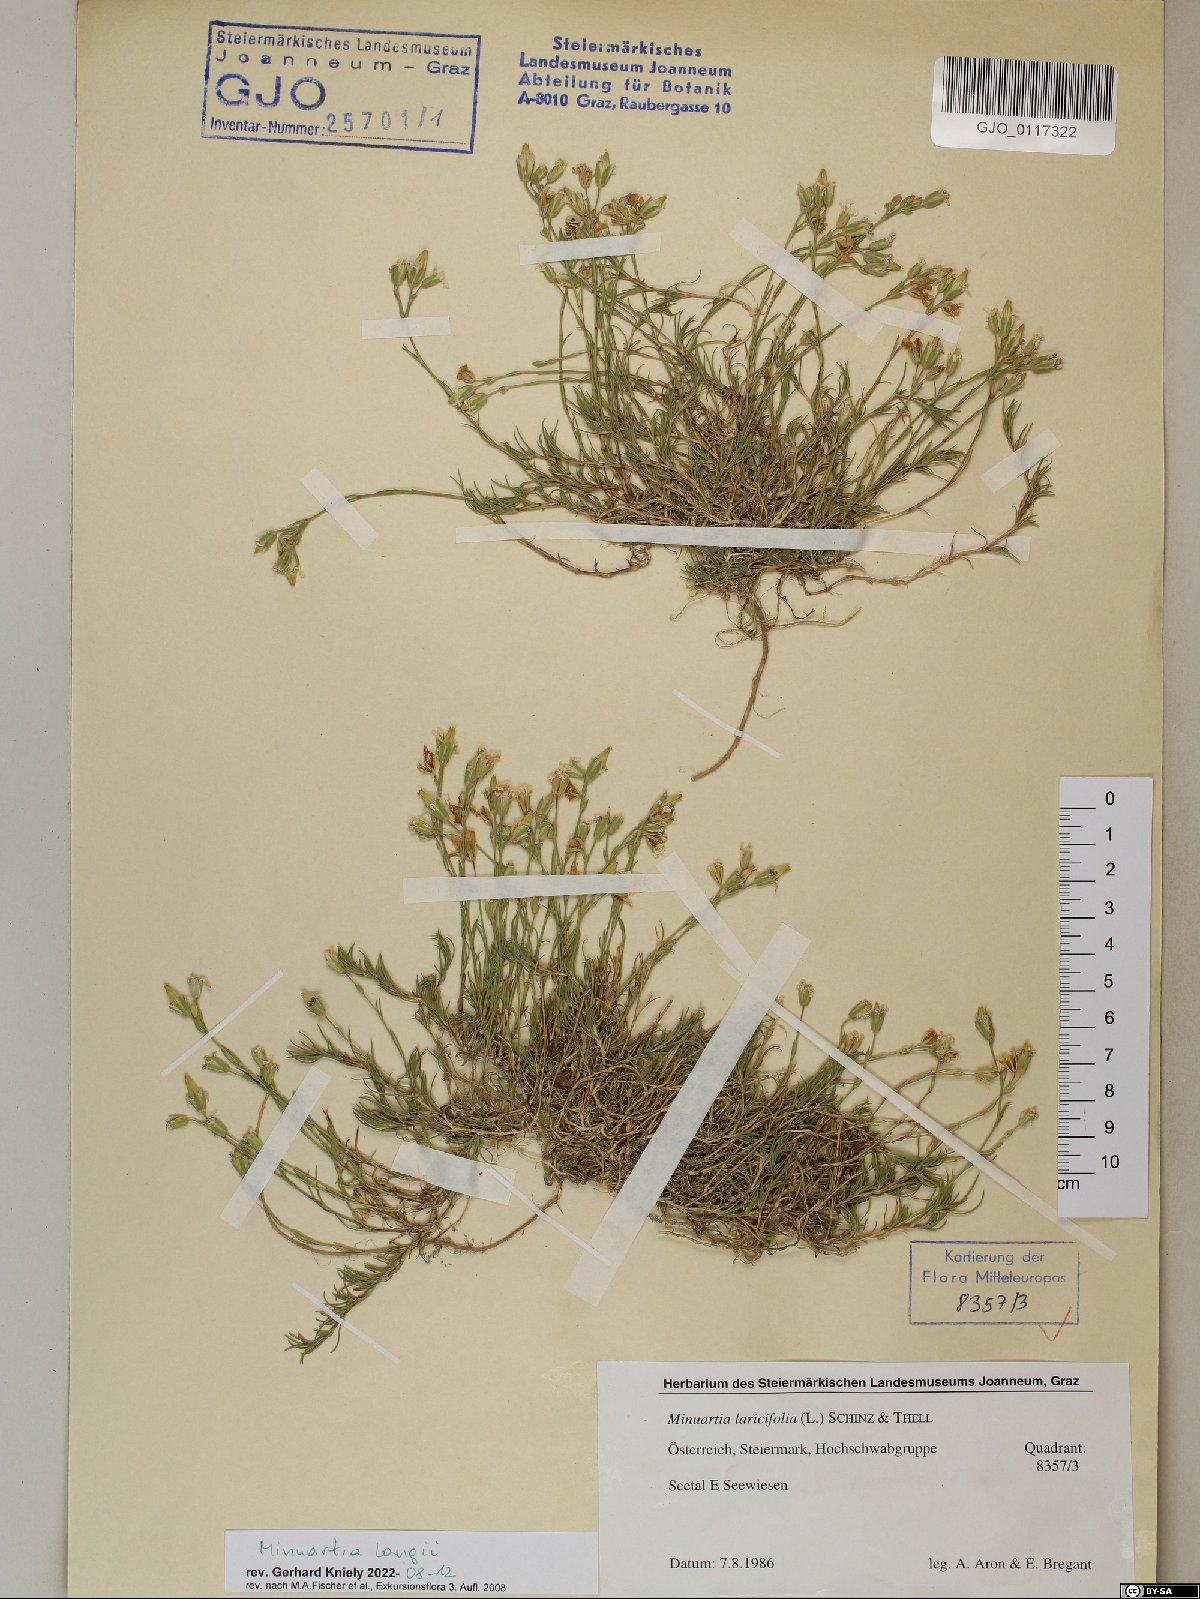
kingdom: Plantae
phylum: Tracheophyta
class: Magnoliopsida
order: Caryophyllales
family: Caryophyllaceae
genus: Cherleria
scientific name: Cherleria langii
